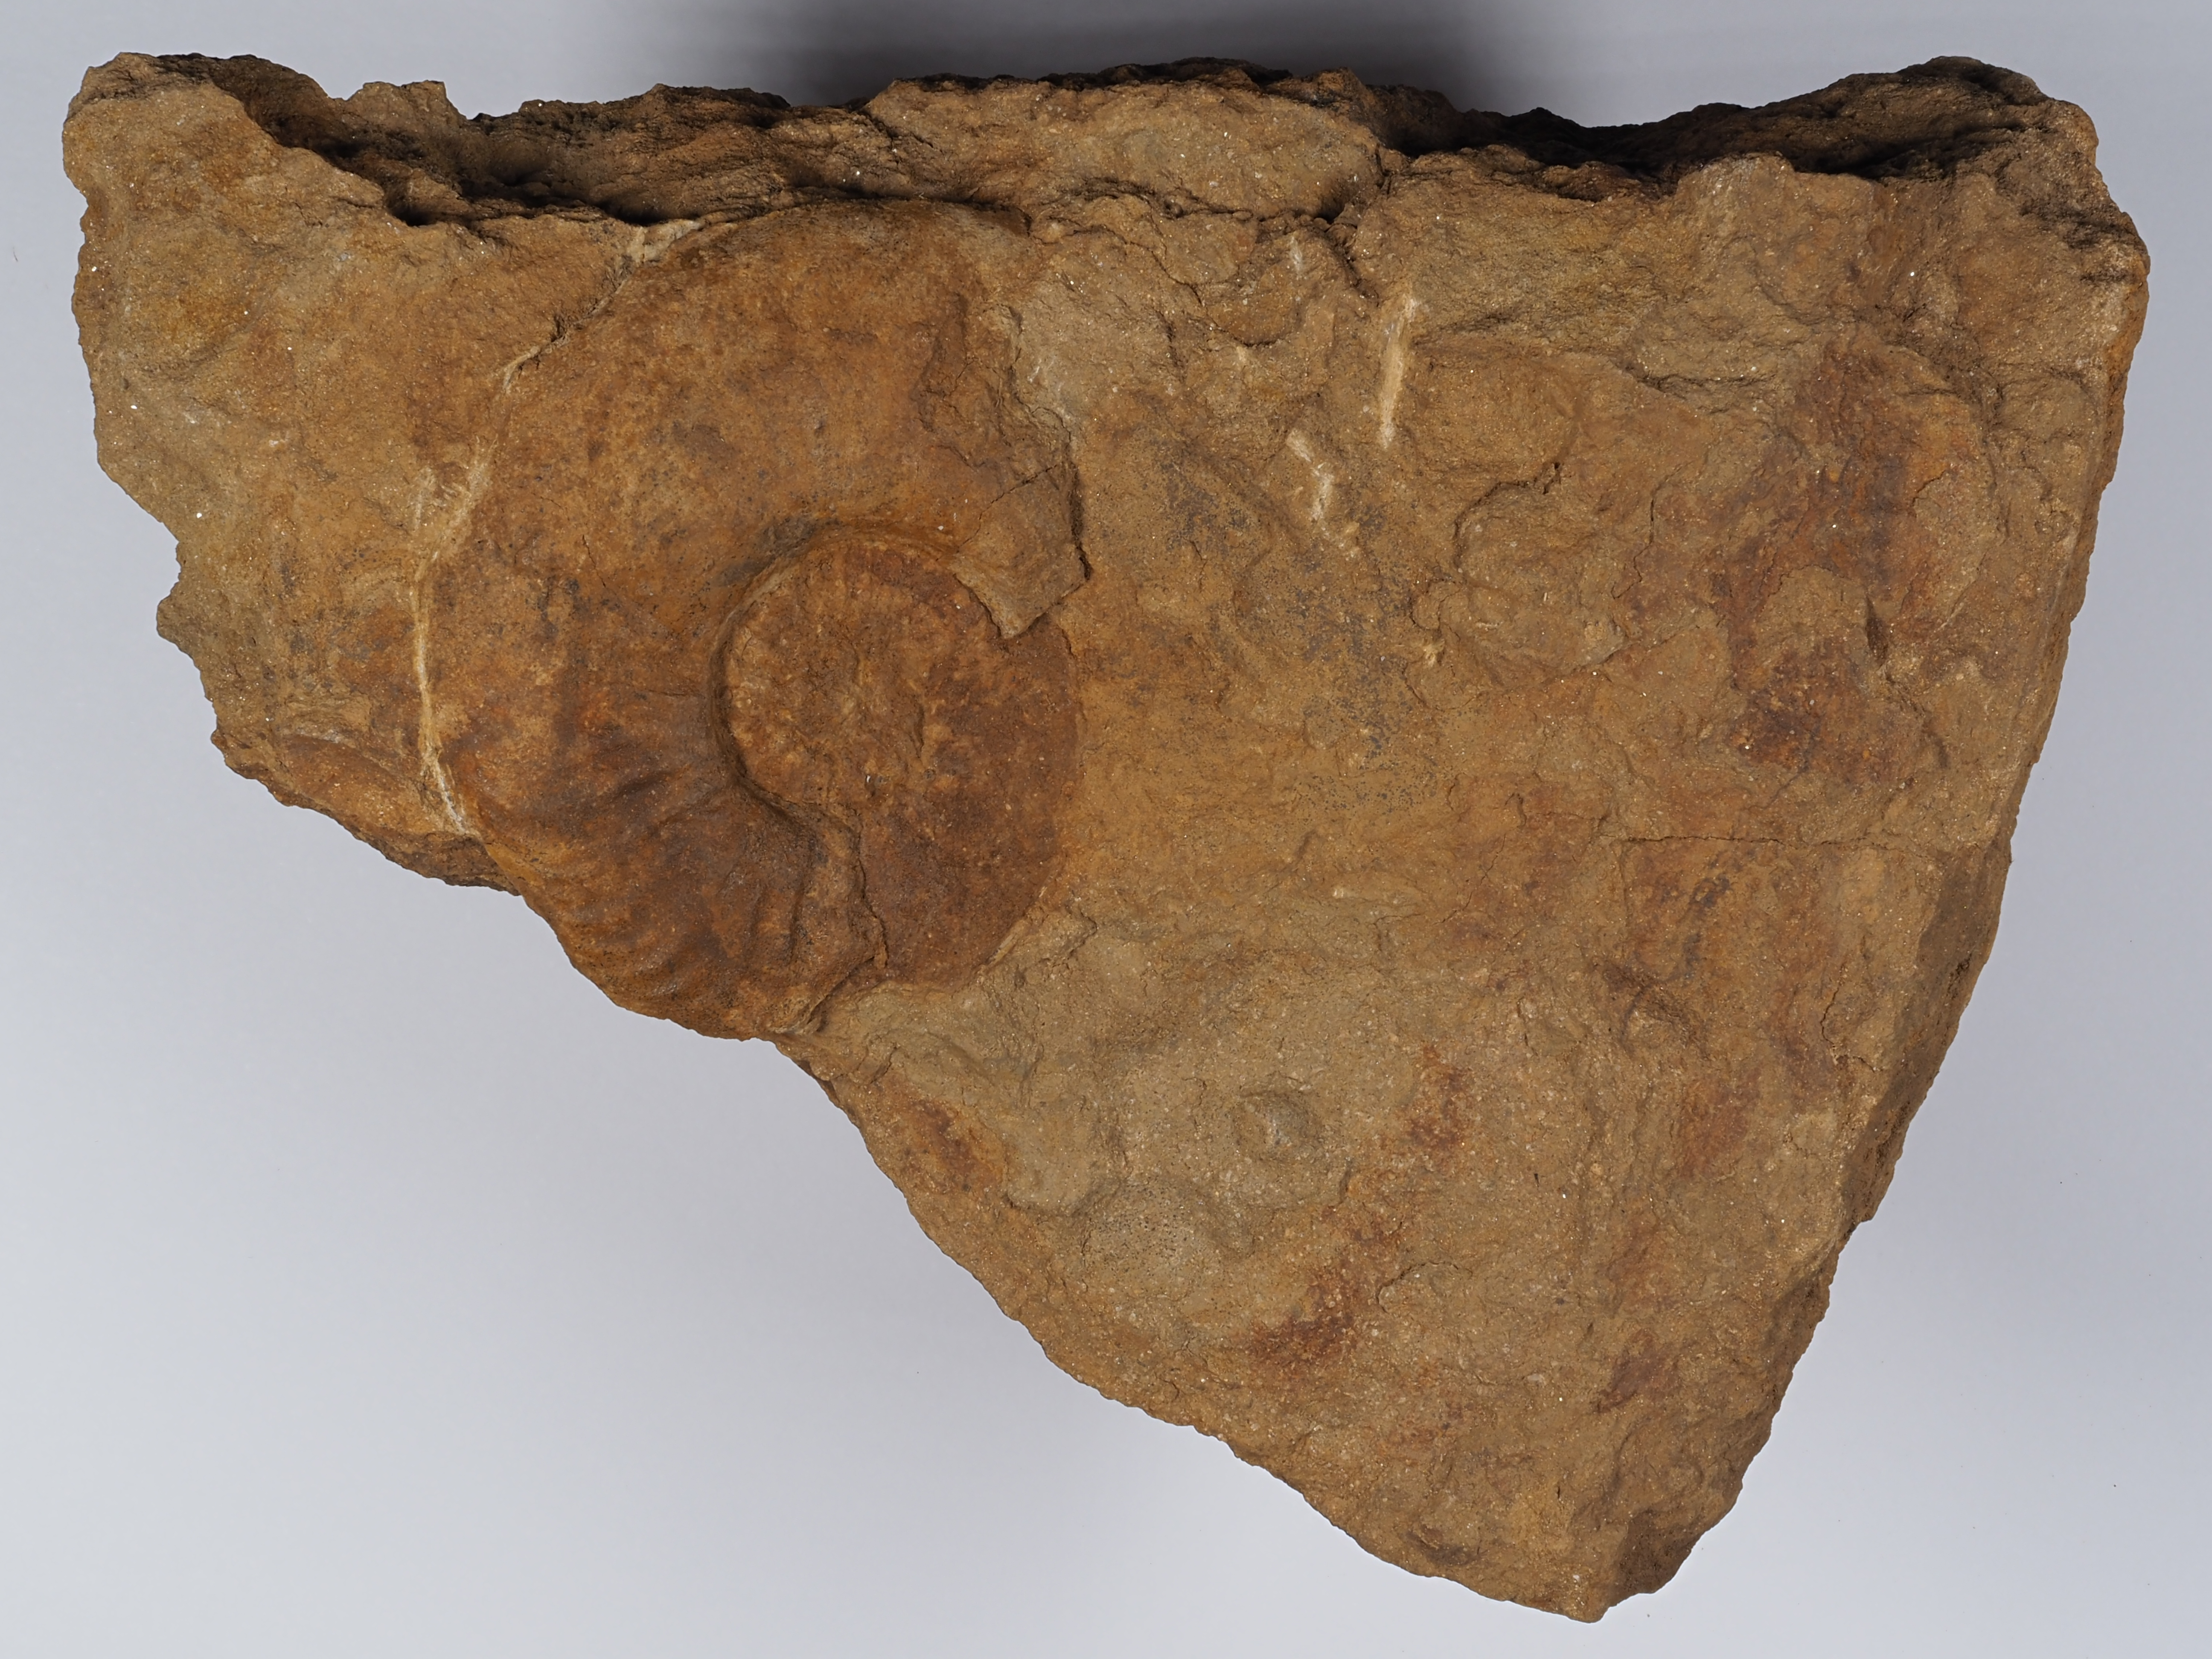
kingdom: Animalia
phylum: Mollusca
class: Cephalopoda
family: Hildoceratidae
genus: Pleydellia
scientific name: Pleydellia
